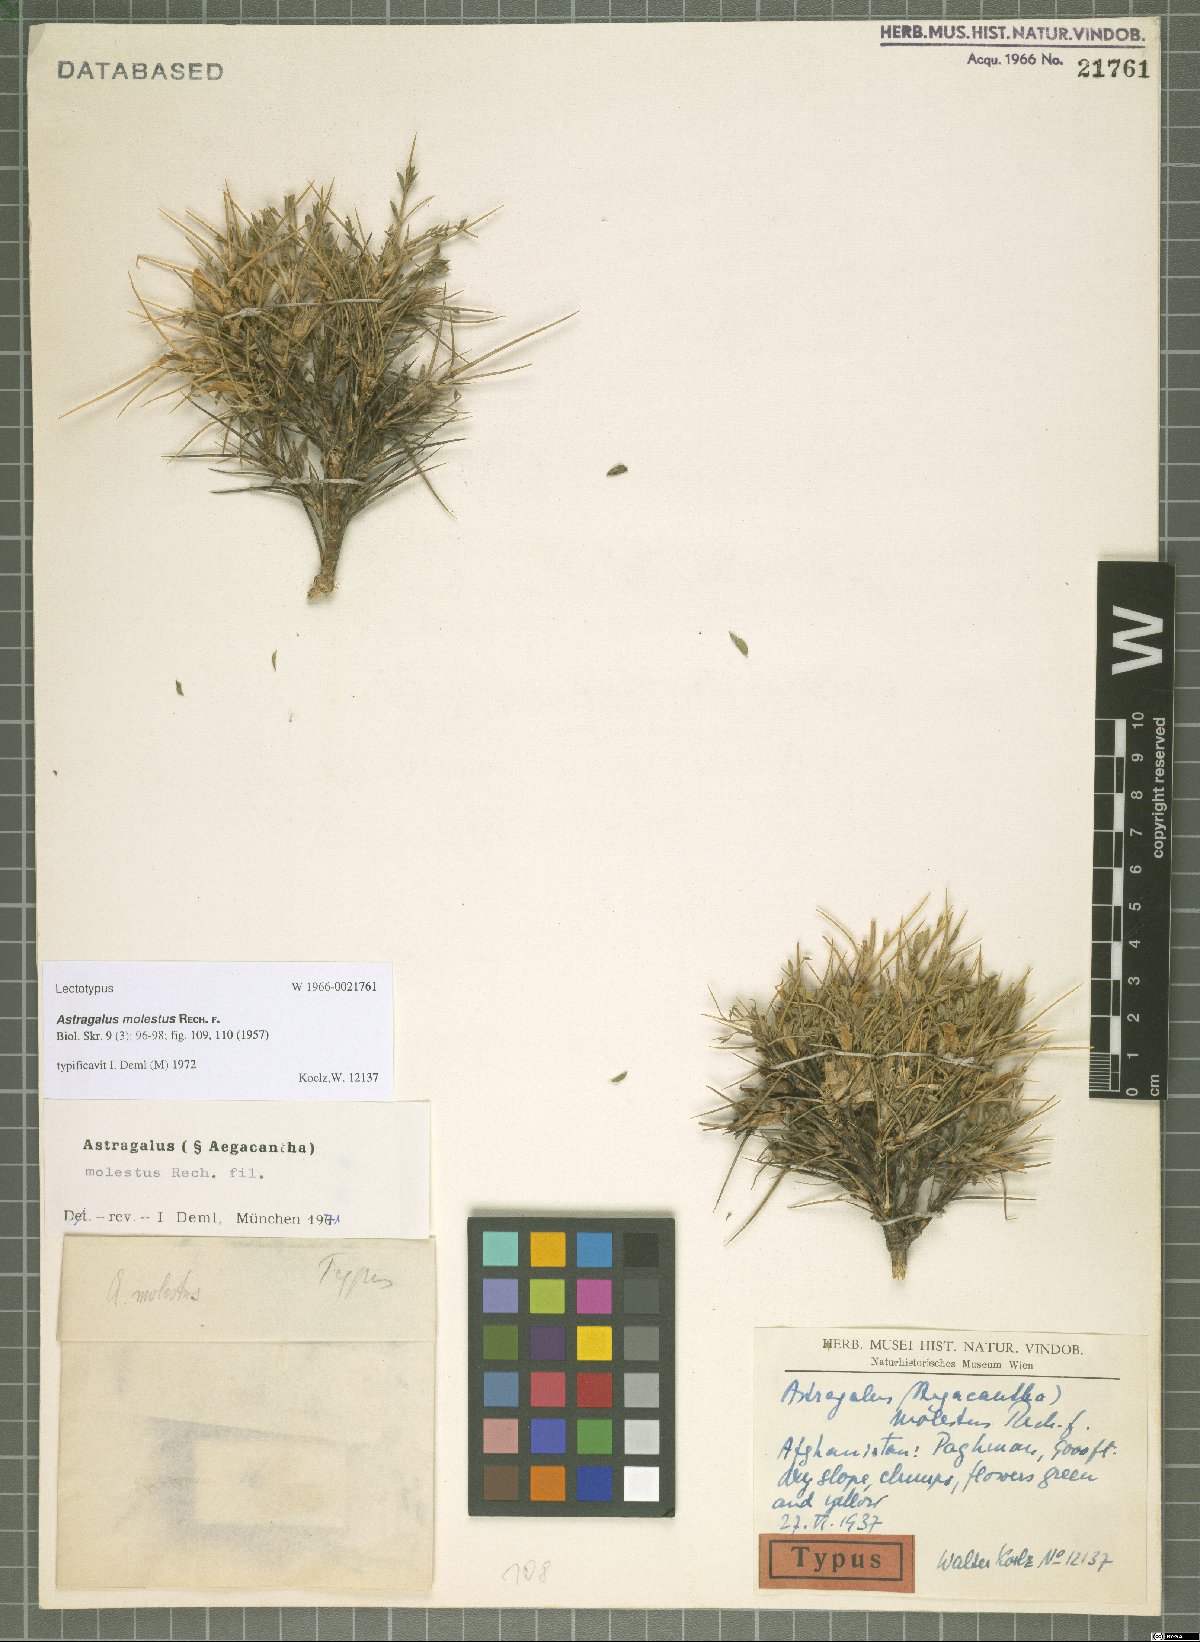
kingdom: Plantae
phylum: Tracheophyta
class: Magnoliopsida
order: Fabales
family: Fabaceae
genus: Astragalus
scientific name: Astragalus molestus
